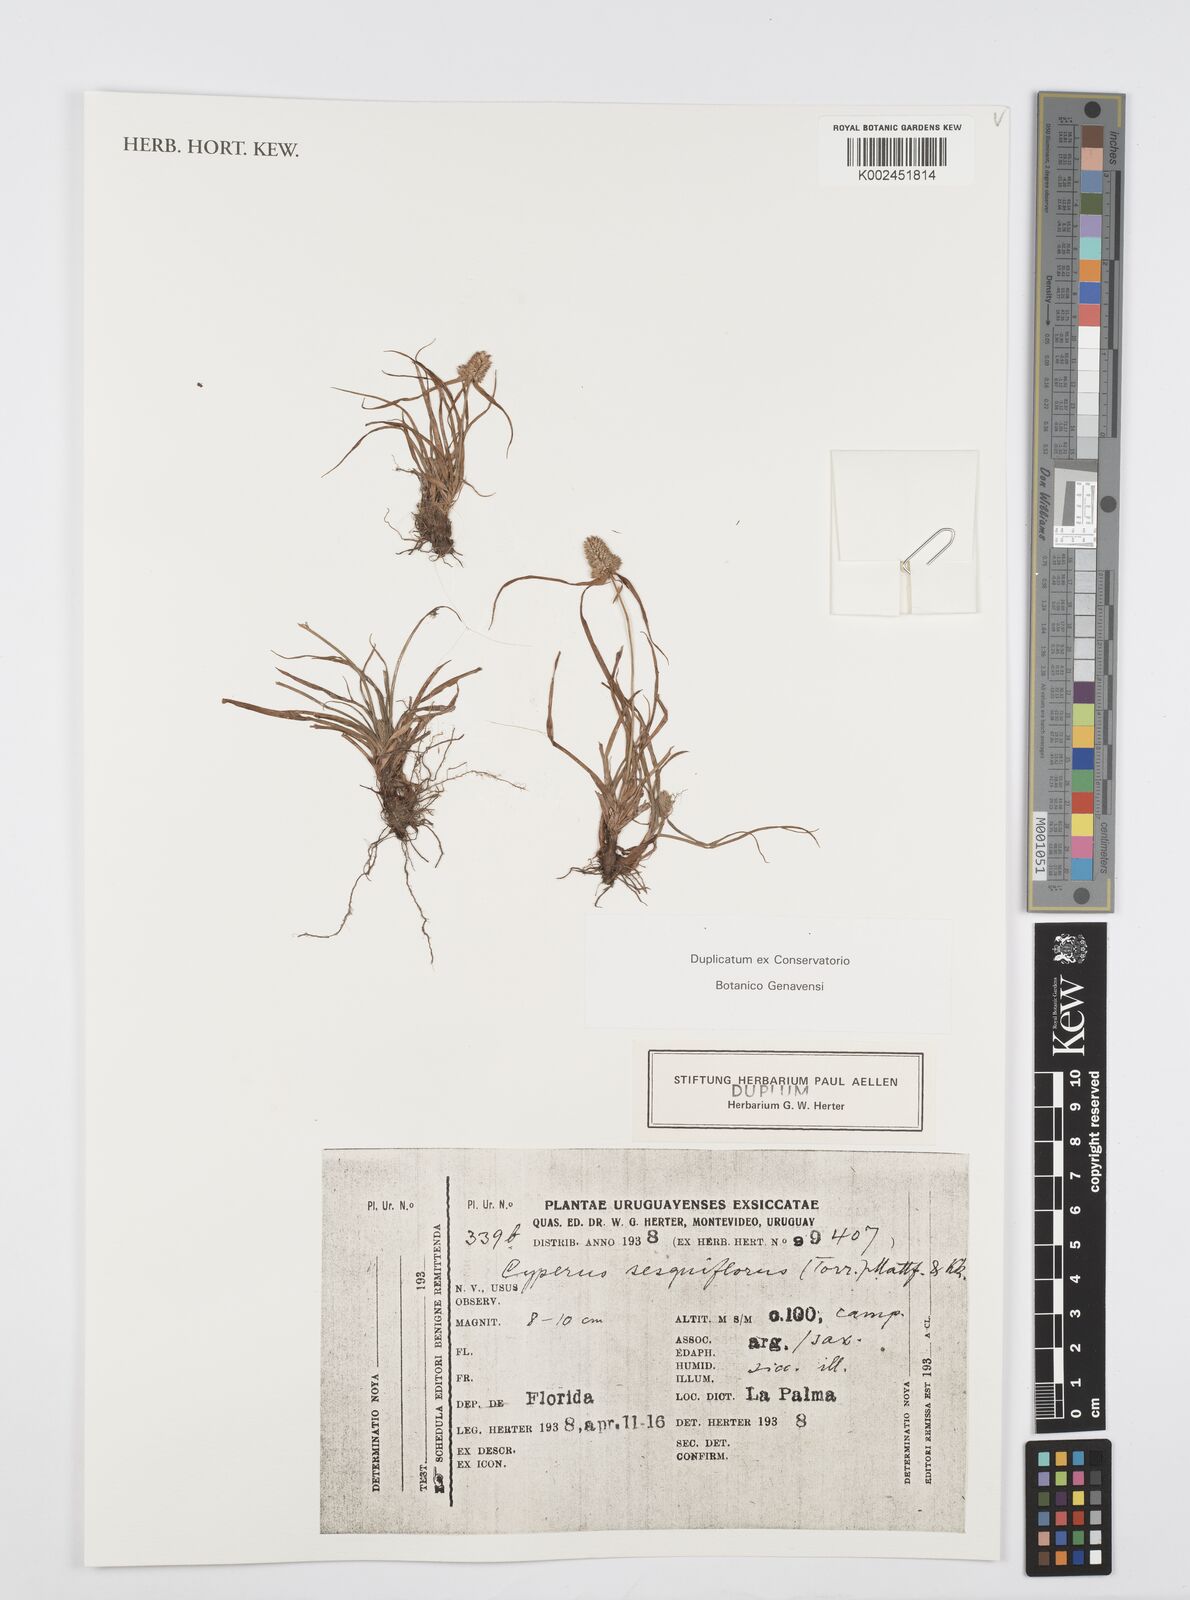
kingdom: Plantae
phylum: Tracheophyta
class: Liliopsida
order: Poales
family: Cyperaceae
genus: Cyperus
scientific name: Cyperus
